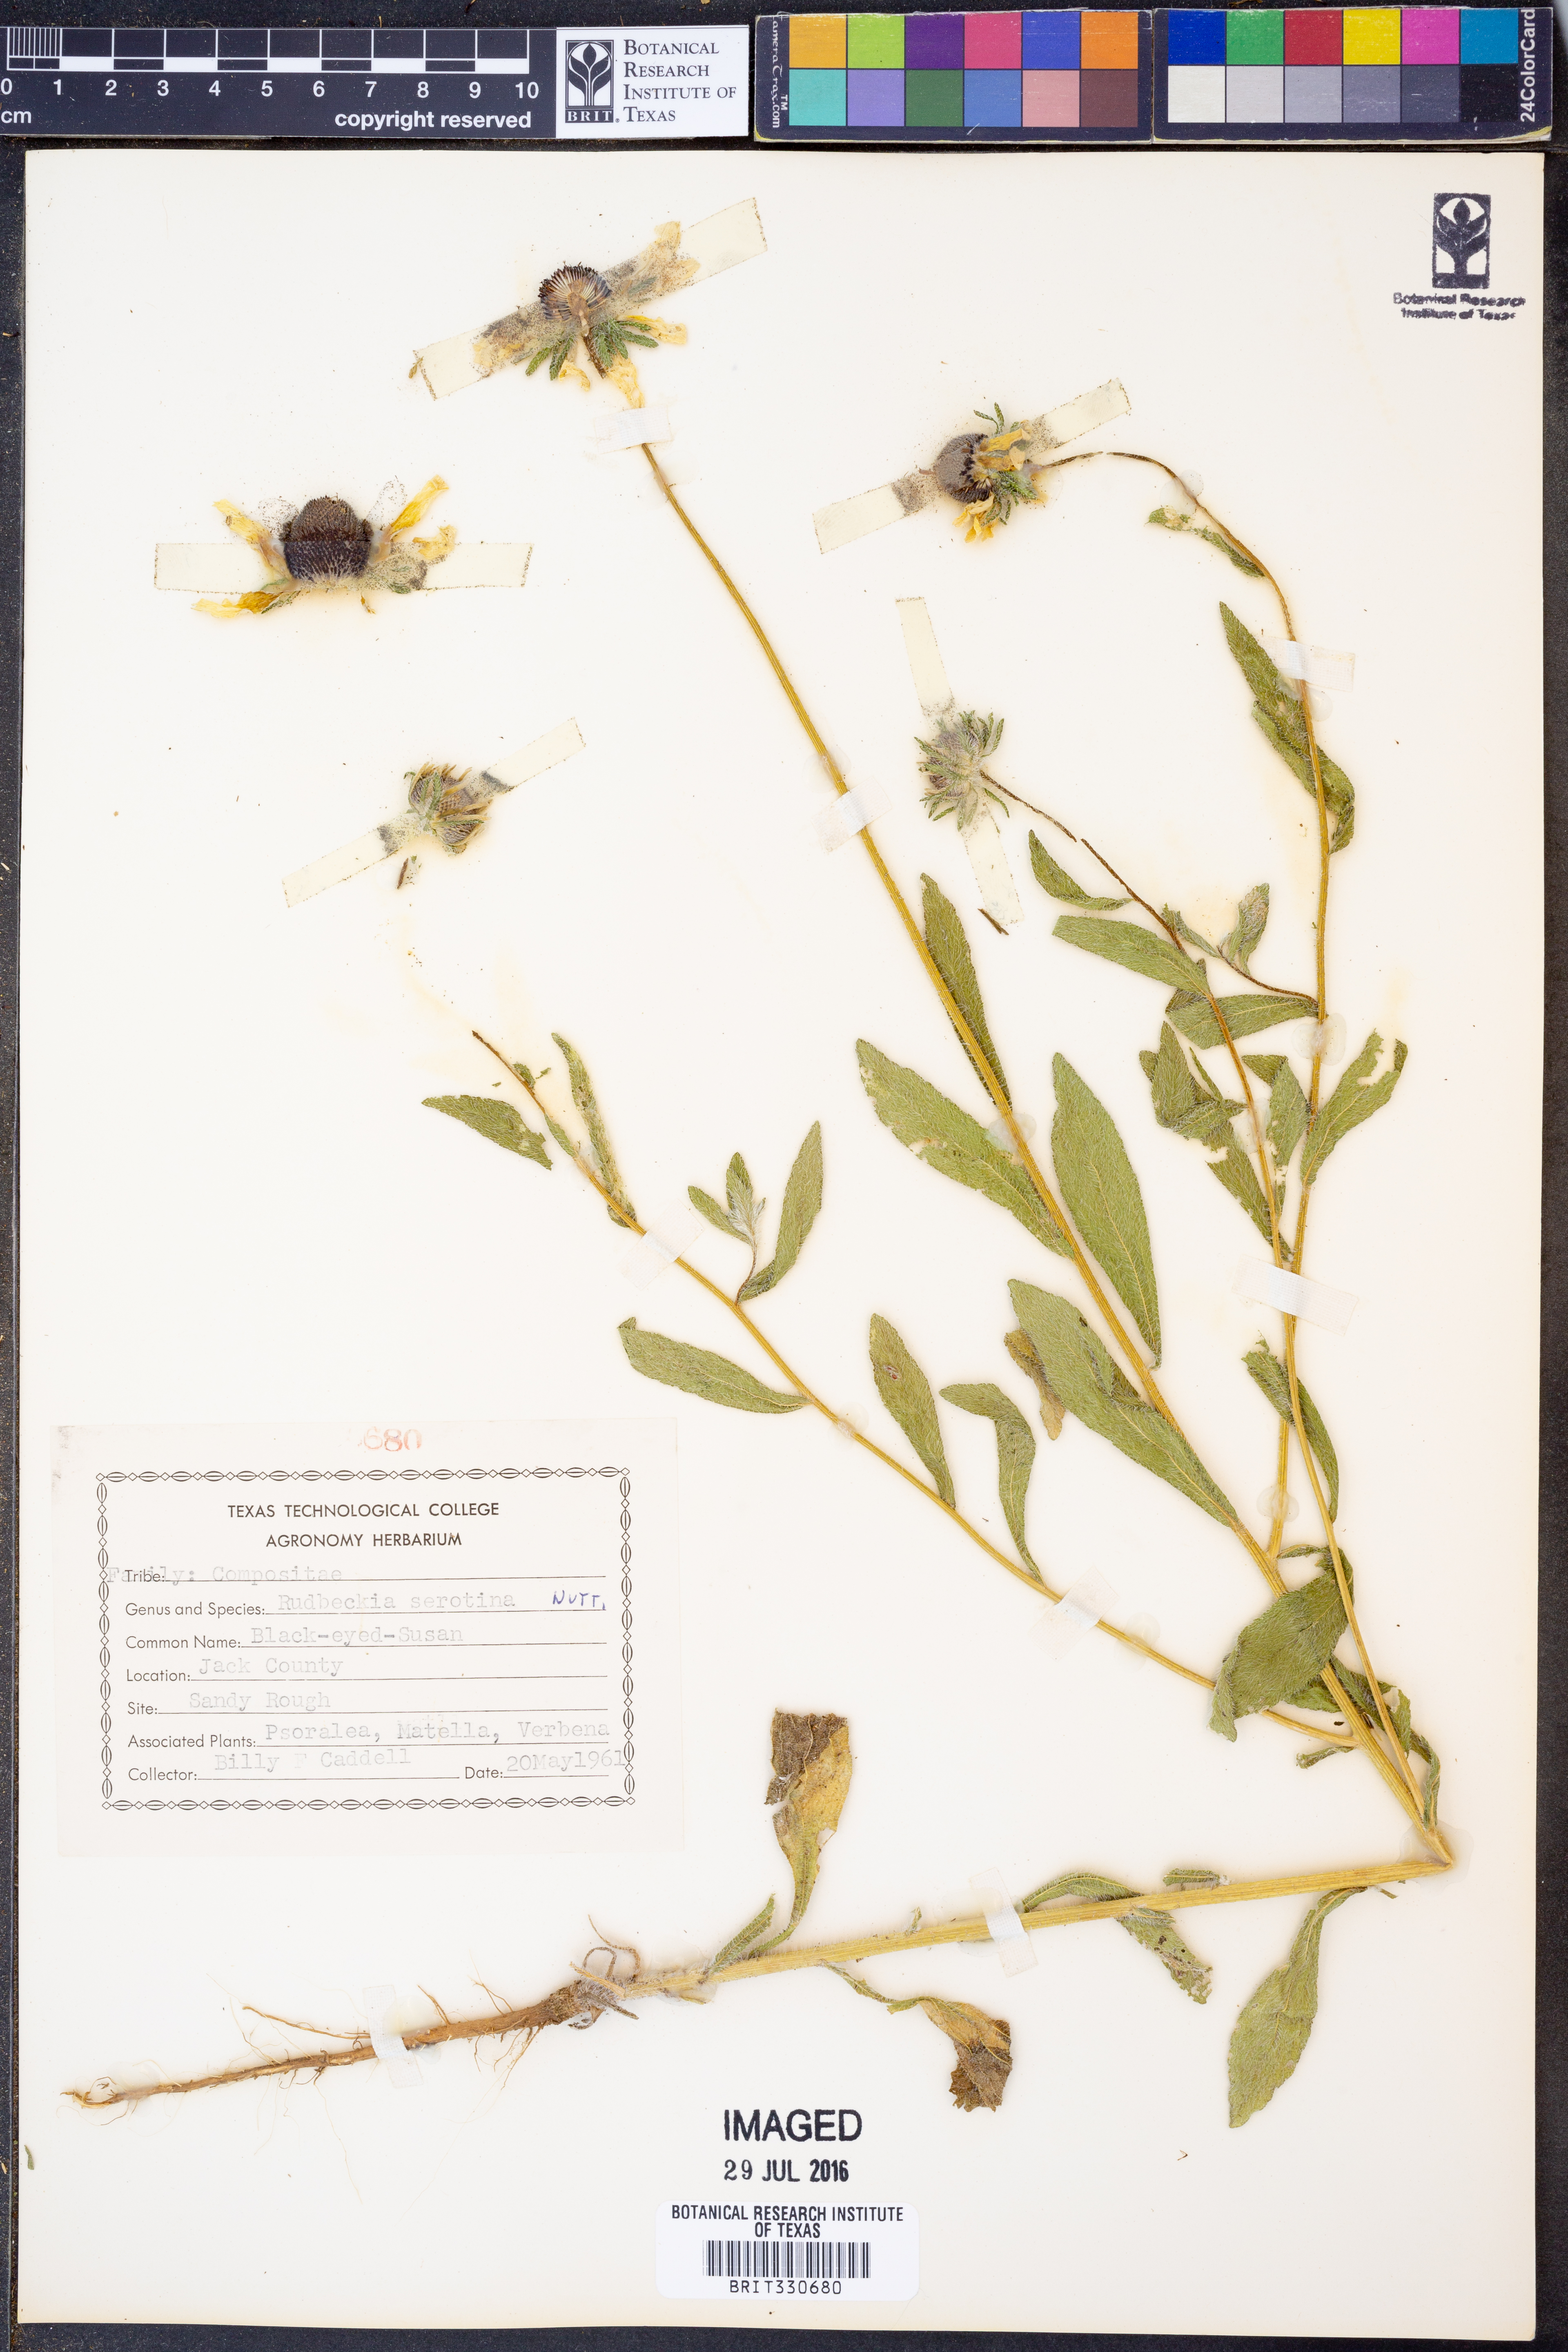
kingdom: Plantae
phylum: Tracheophyta
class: Magnoliopsida
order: Asterales
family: Asteraceae
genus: Echinacea
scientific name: Echinacea purpurea
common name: Broad-leaved purple coneflower
